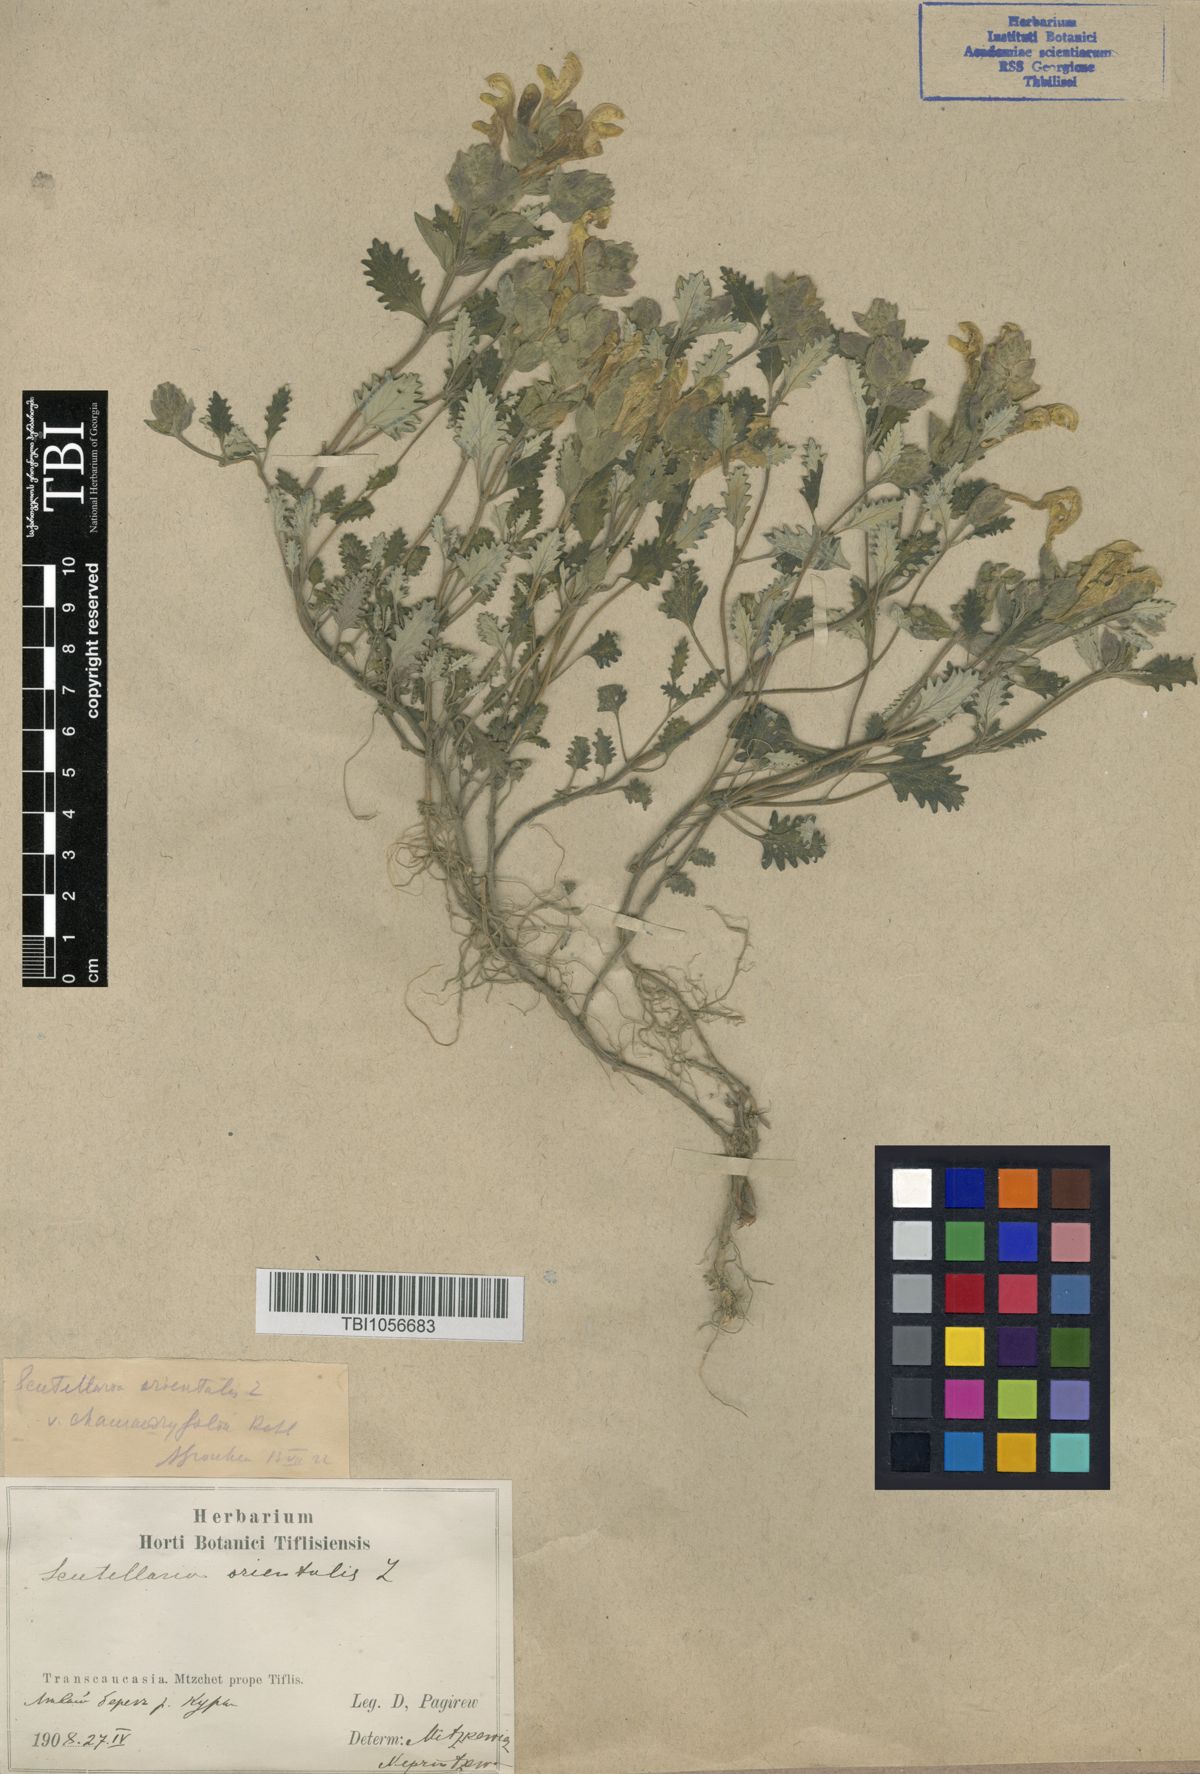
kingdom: Plantae
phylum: Tracheophyta
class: Magnoliopsida
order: Lamiales
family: Lamiaceae
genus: Scutellaria
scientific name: Scutellaria orientalis
